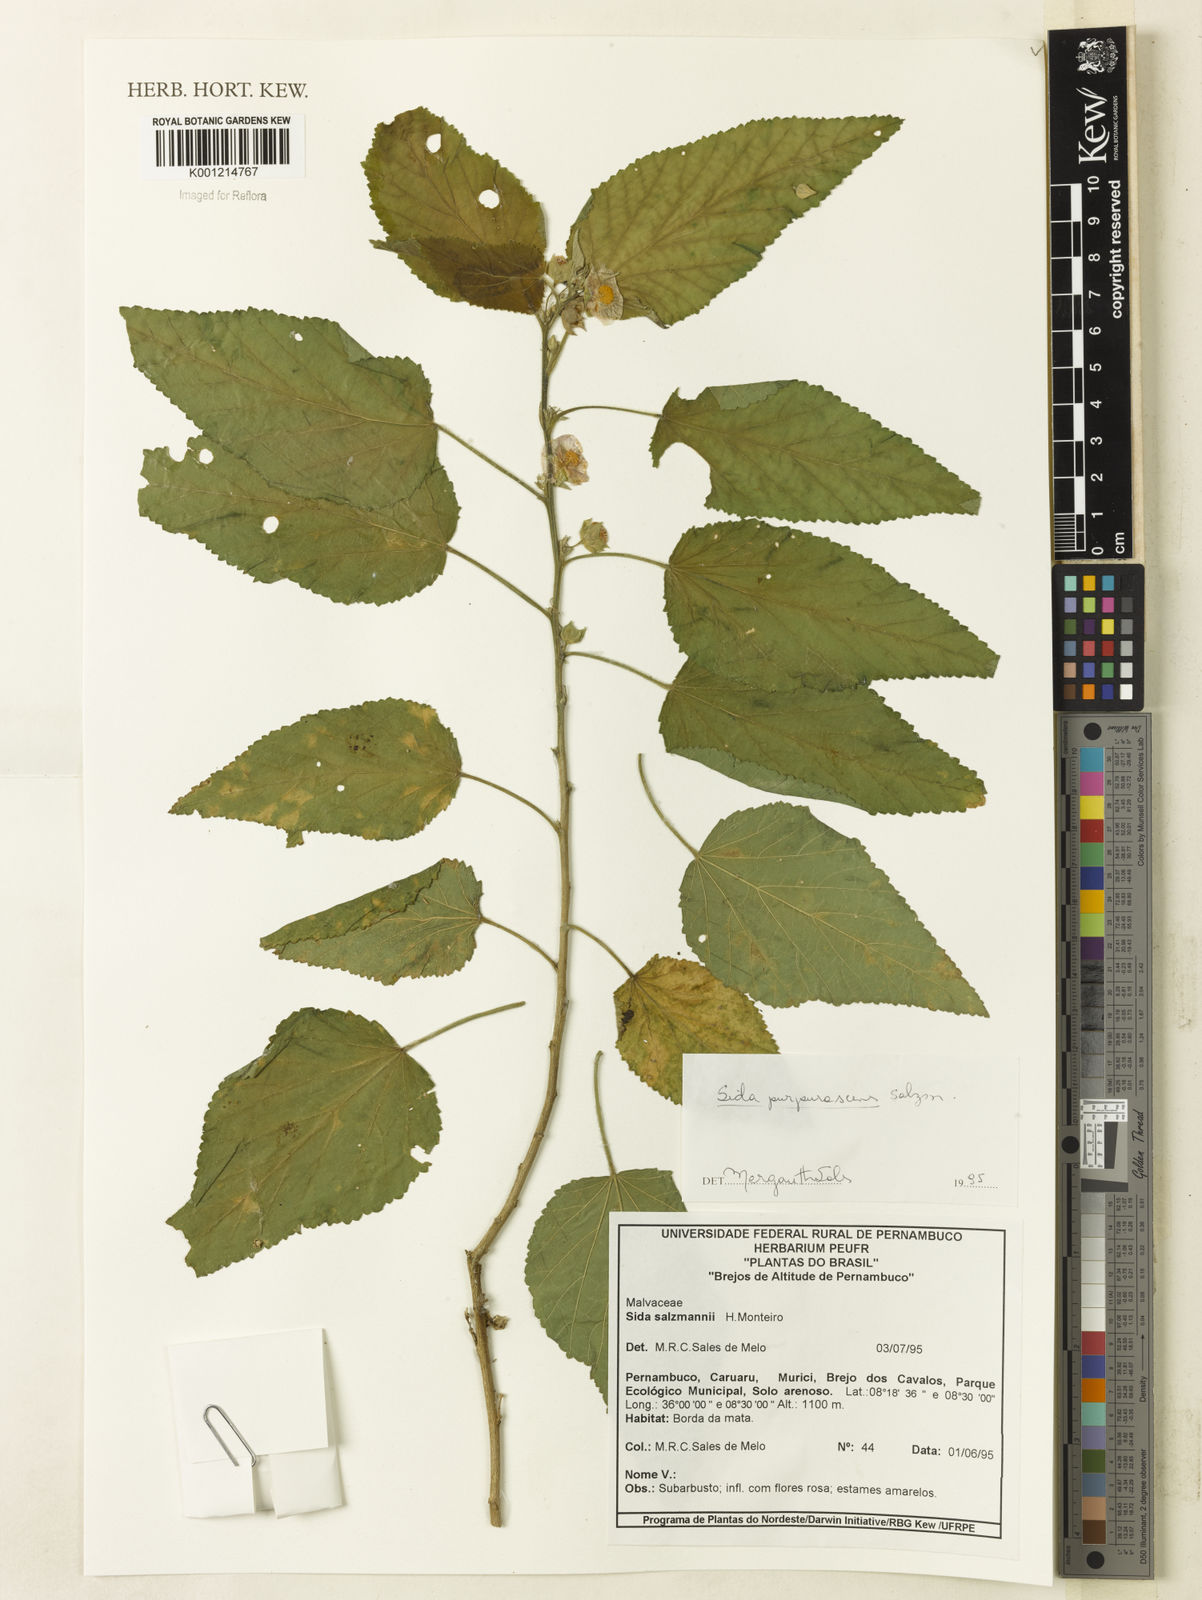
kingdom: Plantae
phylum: Tracheophyta
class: Magnoliopsida
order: Malvales
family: Malvaceae
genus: Sida
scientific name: Sida ulei
